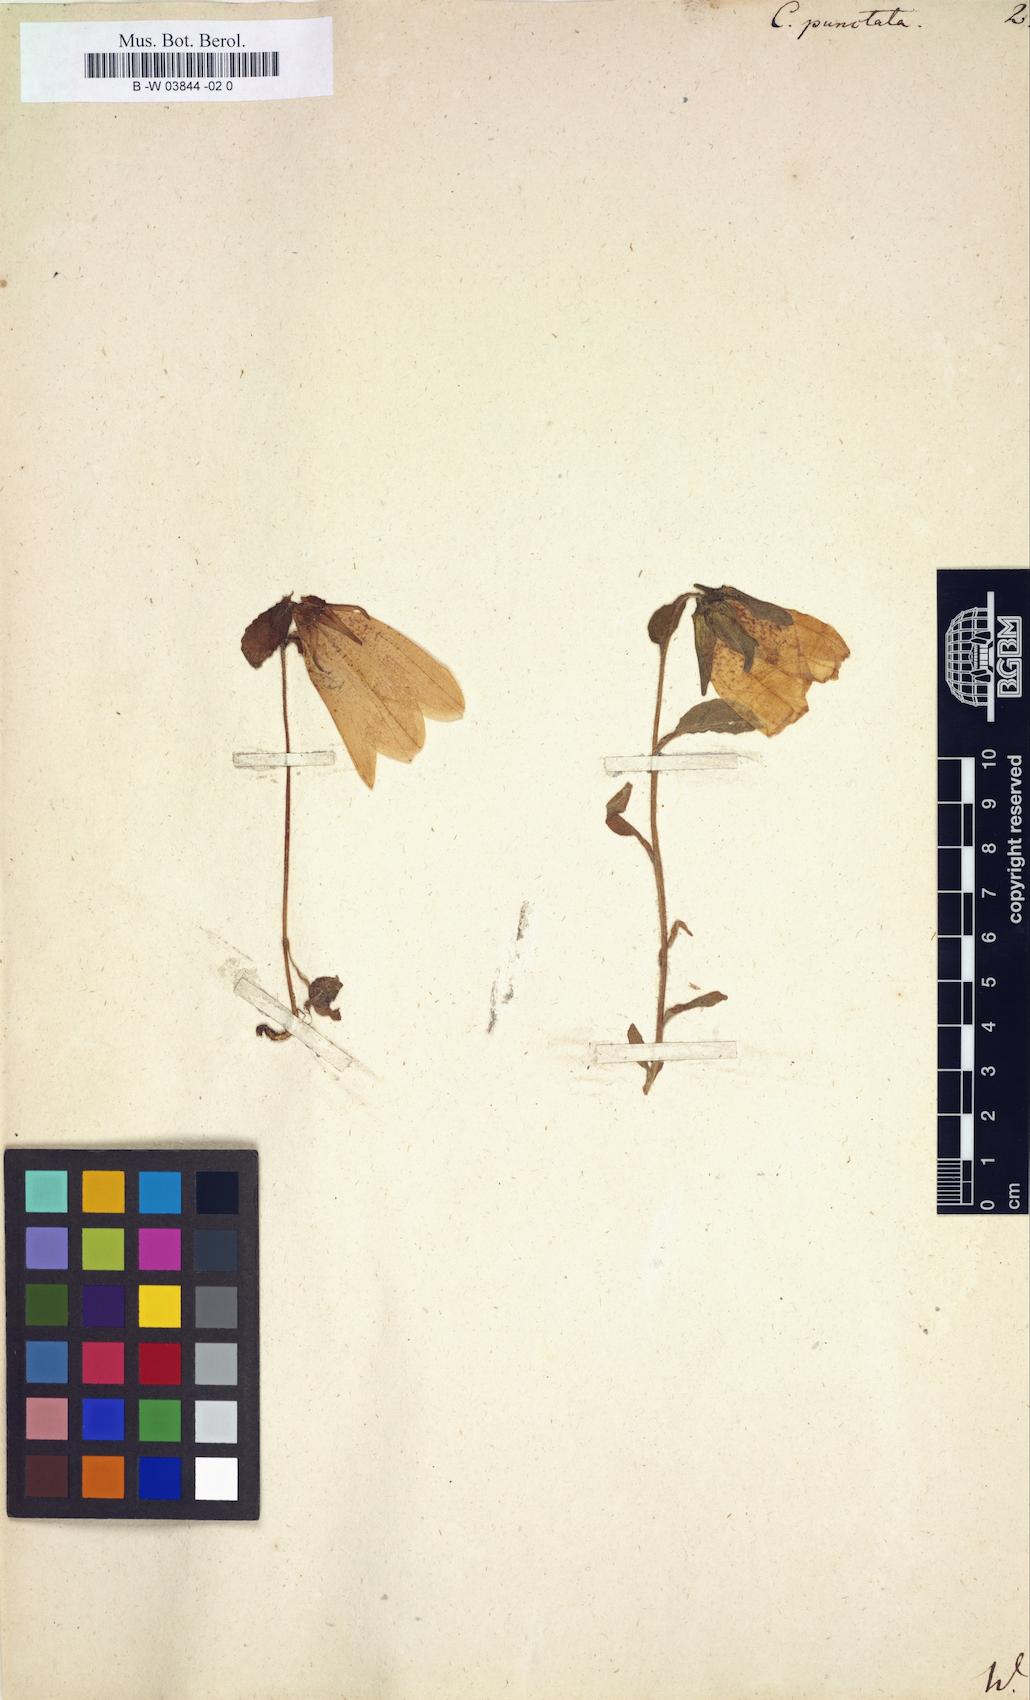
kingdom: Plantae
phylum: Tracheophyta
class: Magnoliopsida
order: Asterales
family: Campanulaceae
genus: Campanula
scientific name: Campanula punctata
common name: Spotted bellflower
